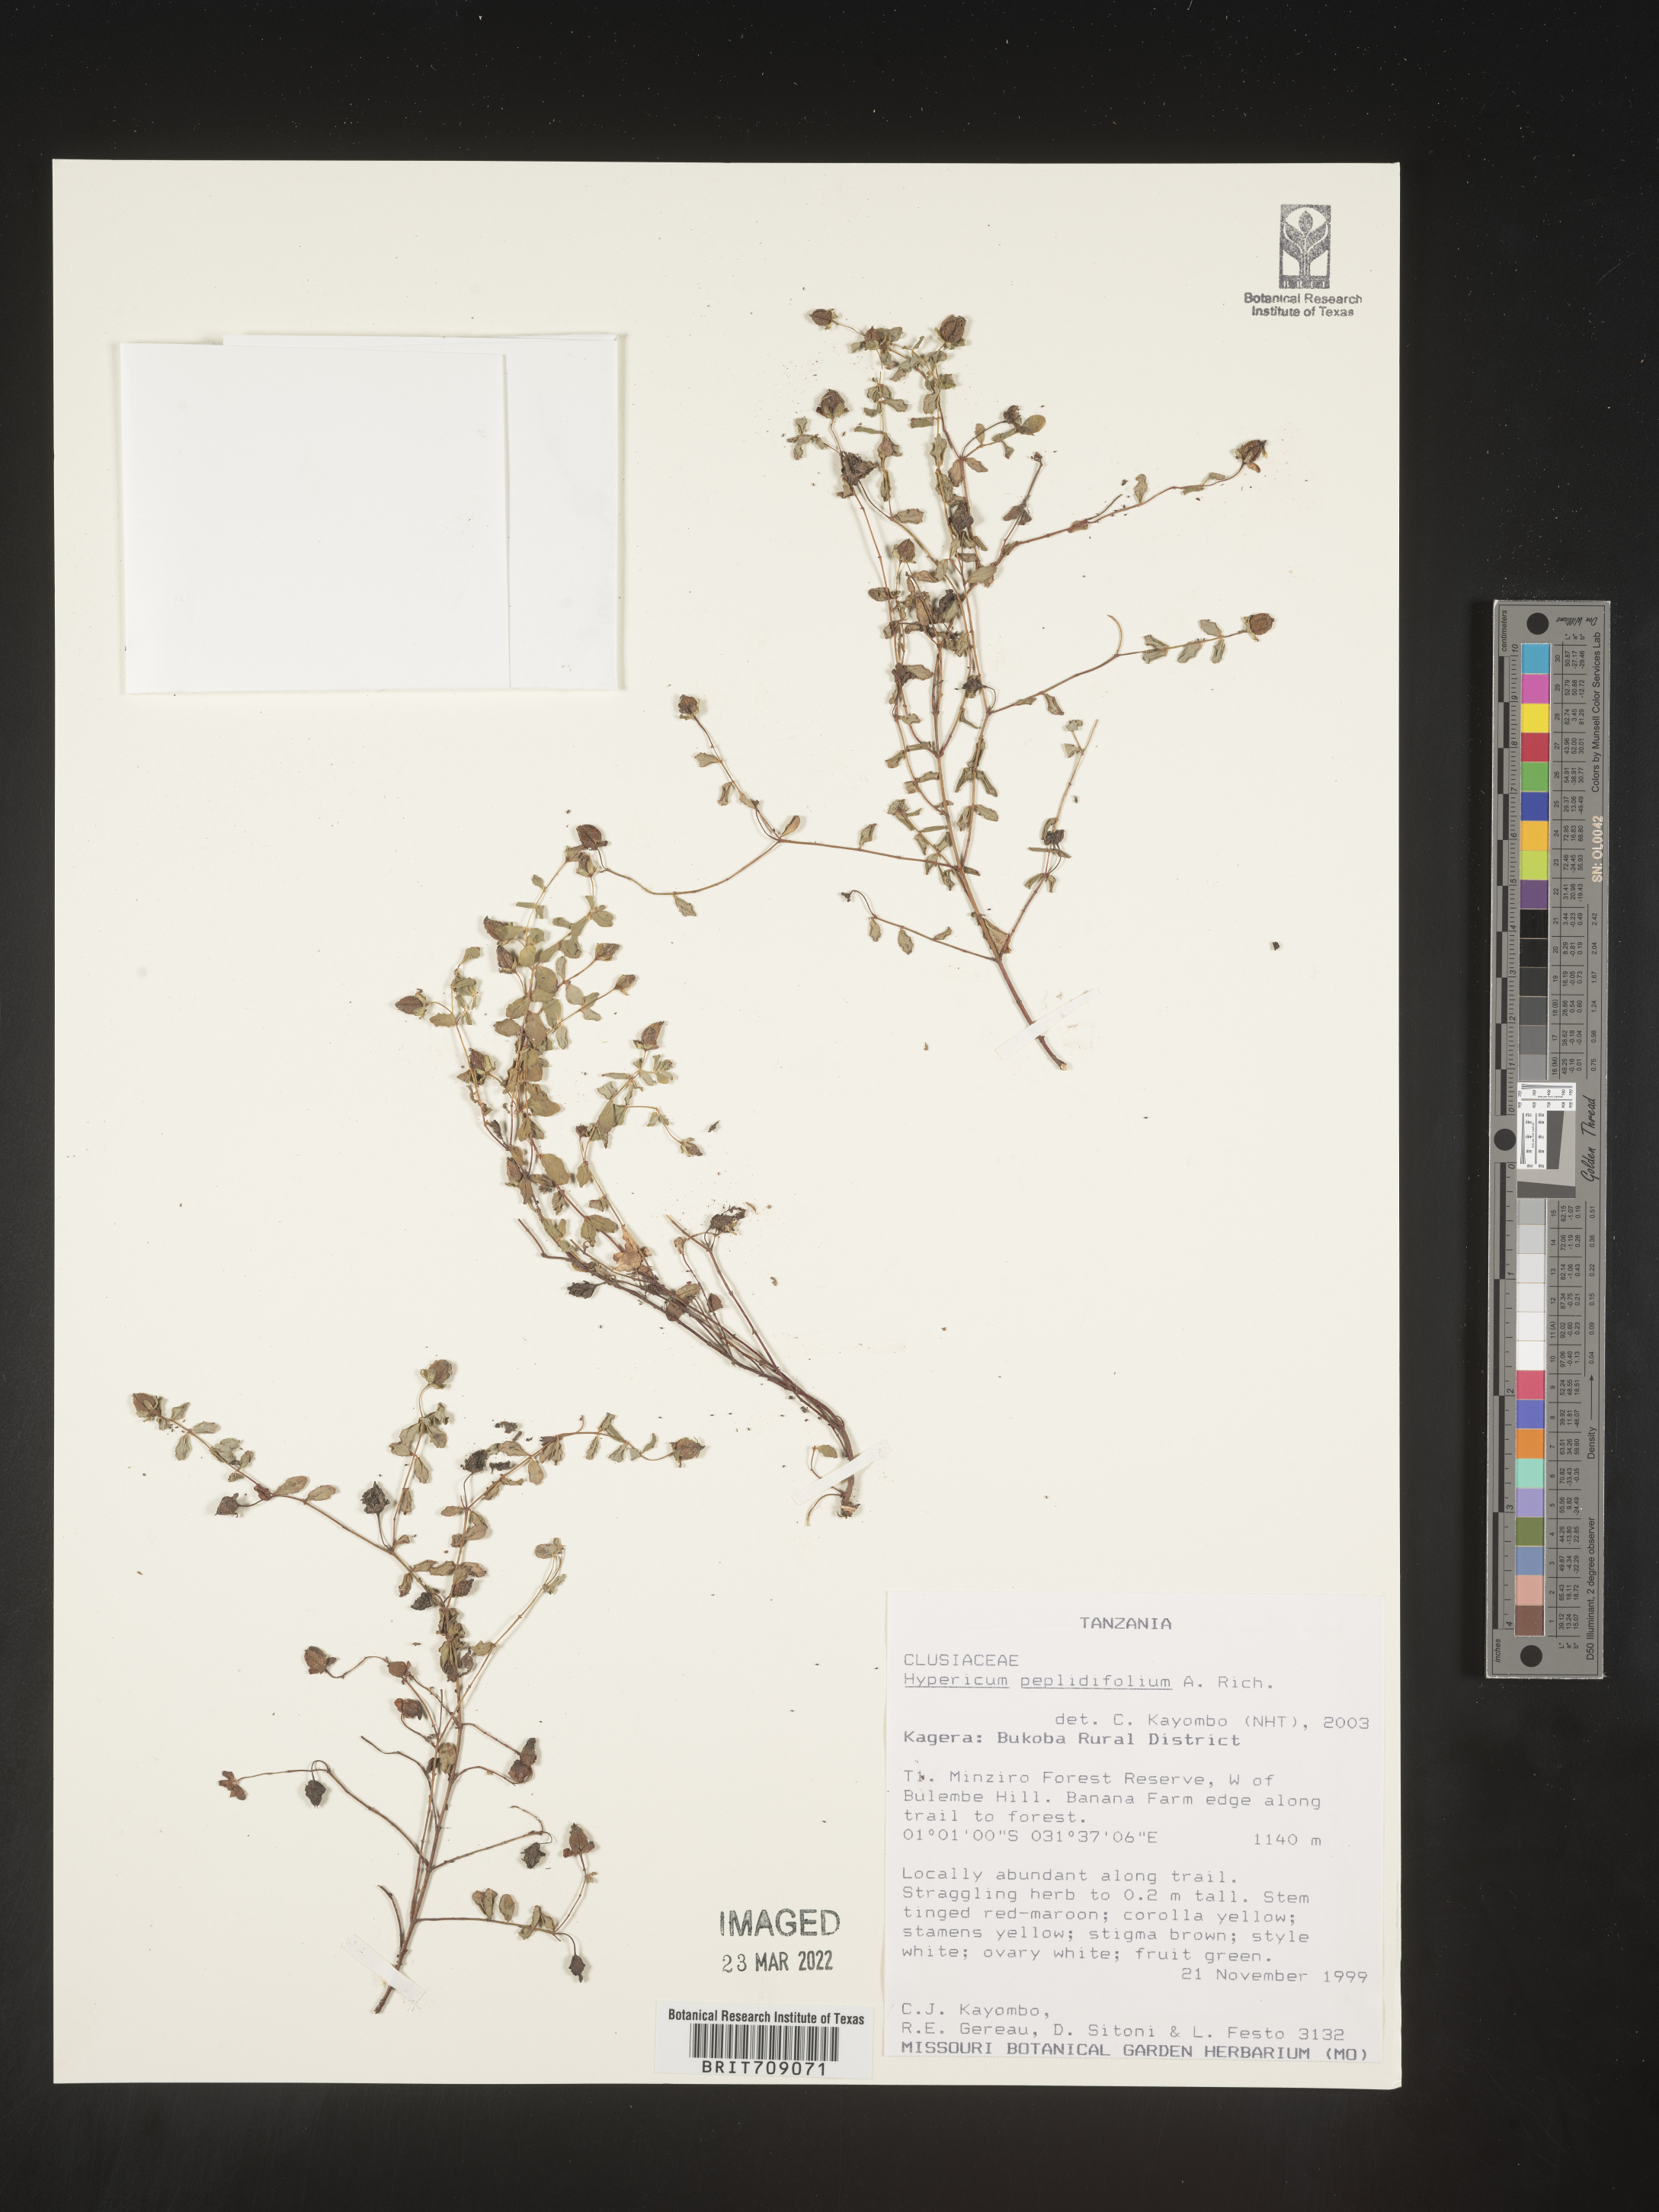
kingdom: Plantae
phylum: Tracheophyta
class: Magnoliopsida
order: Malpighiales
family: Hypericaceae
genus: Hypericum
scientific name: Hypericum
